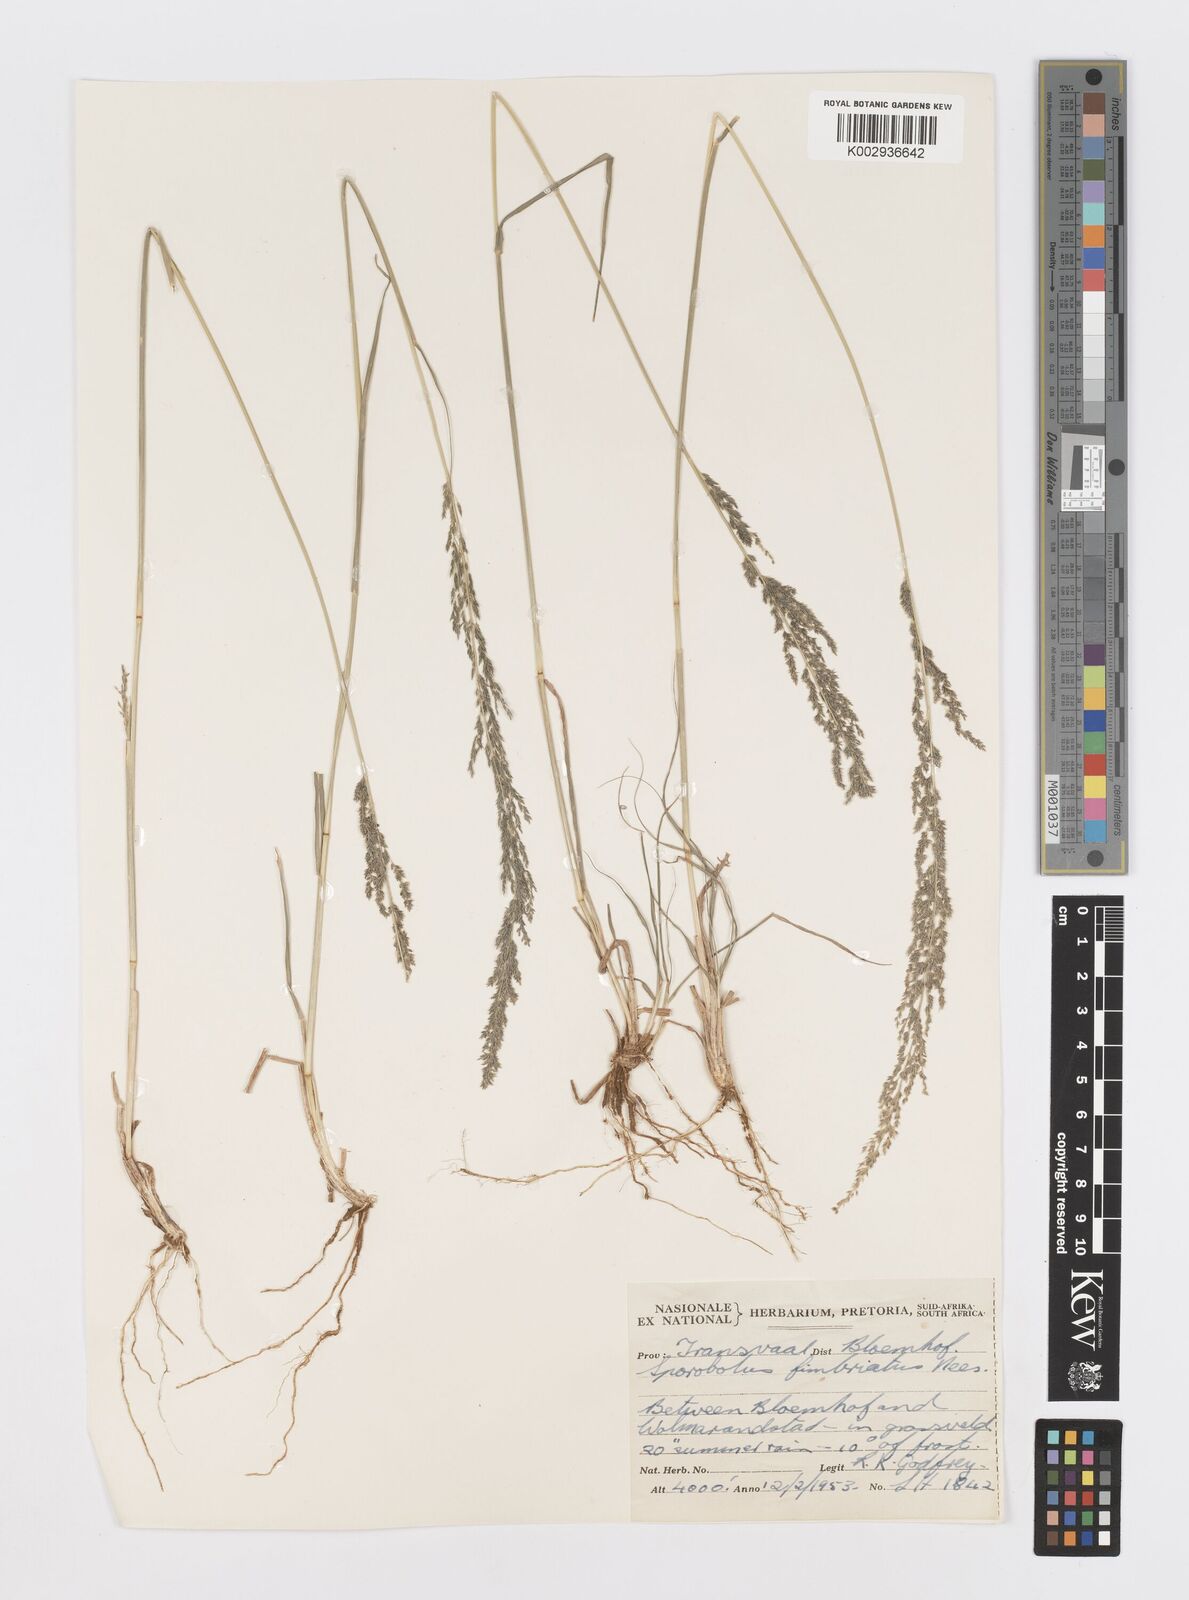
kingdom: Plantae
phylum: Tracheophyta
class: Liliopsida
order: Poales
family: Poaceae
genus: Sporobolus
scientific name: Sporobolus fimbriatus
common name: Fringed dropseed
